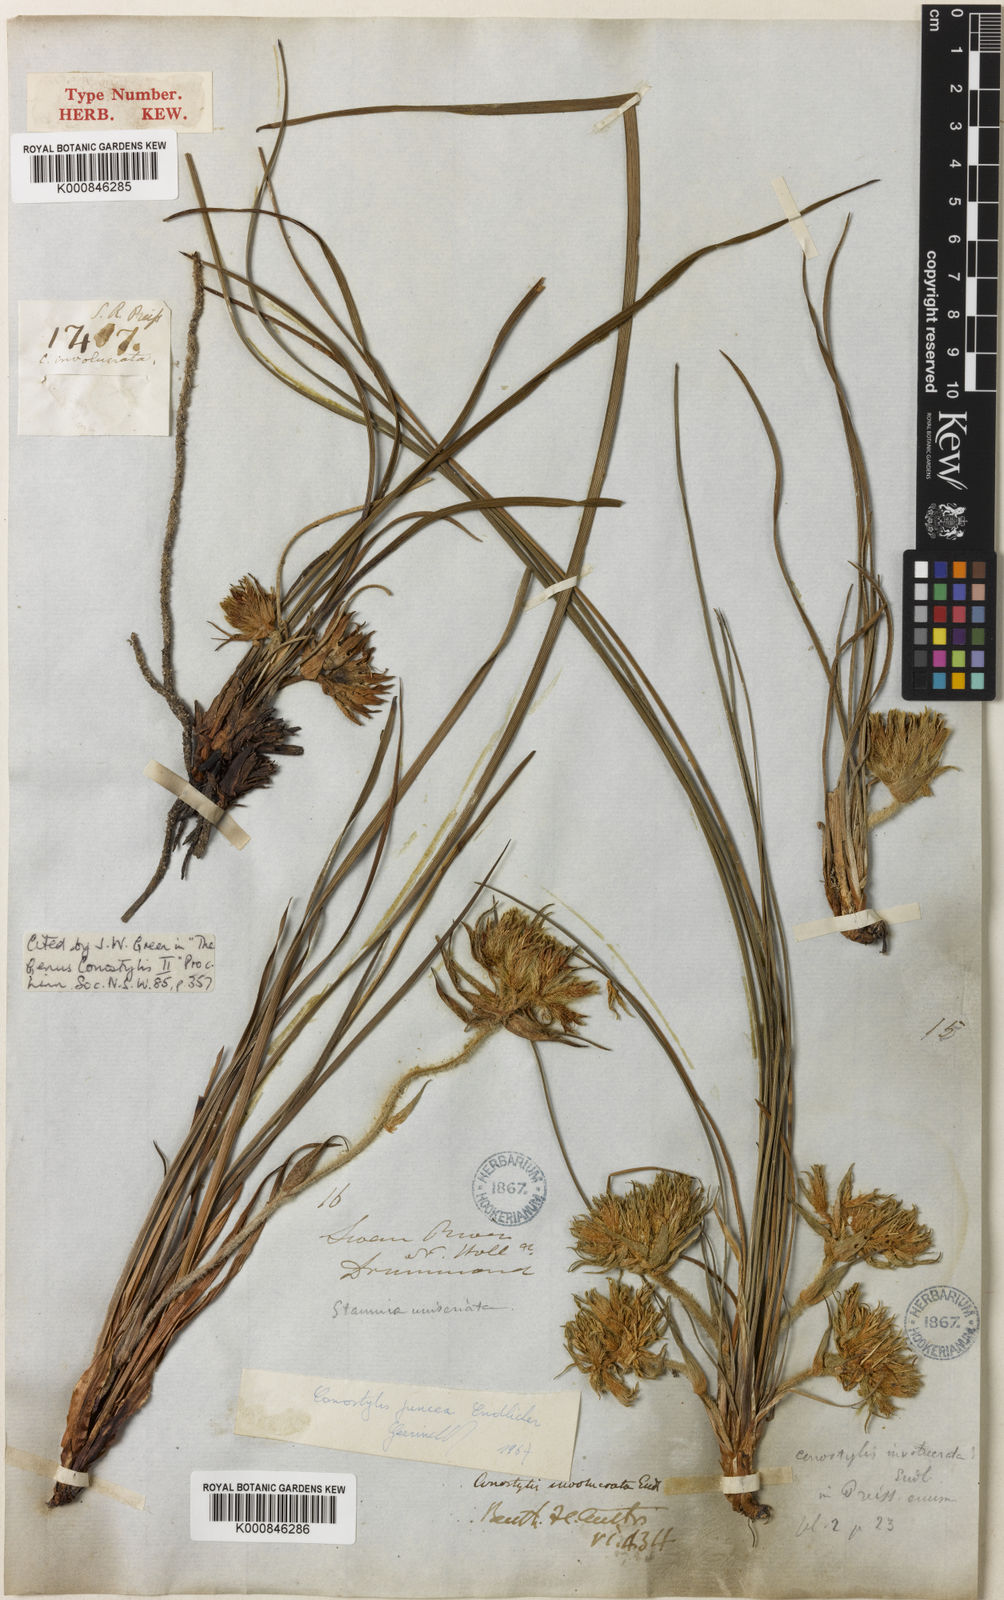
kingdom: Plantae
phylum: Tracheophyta
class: Liliopsida
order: Commelinales
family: Haemodoraceae
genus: Conostylis
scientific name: Conostylis juncea
